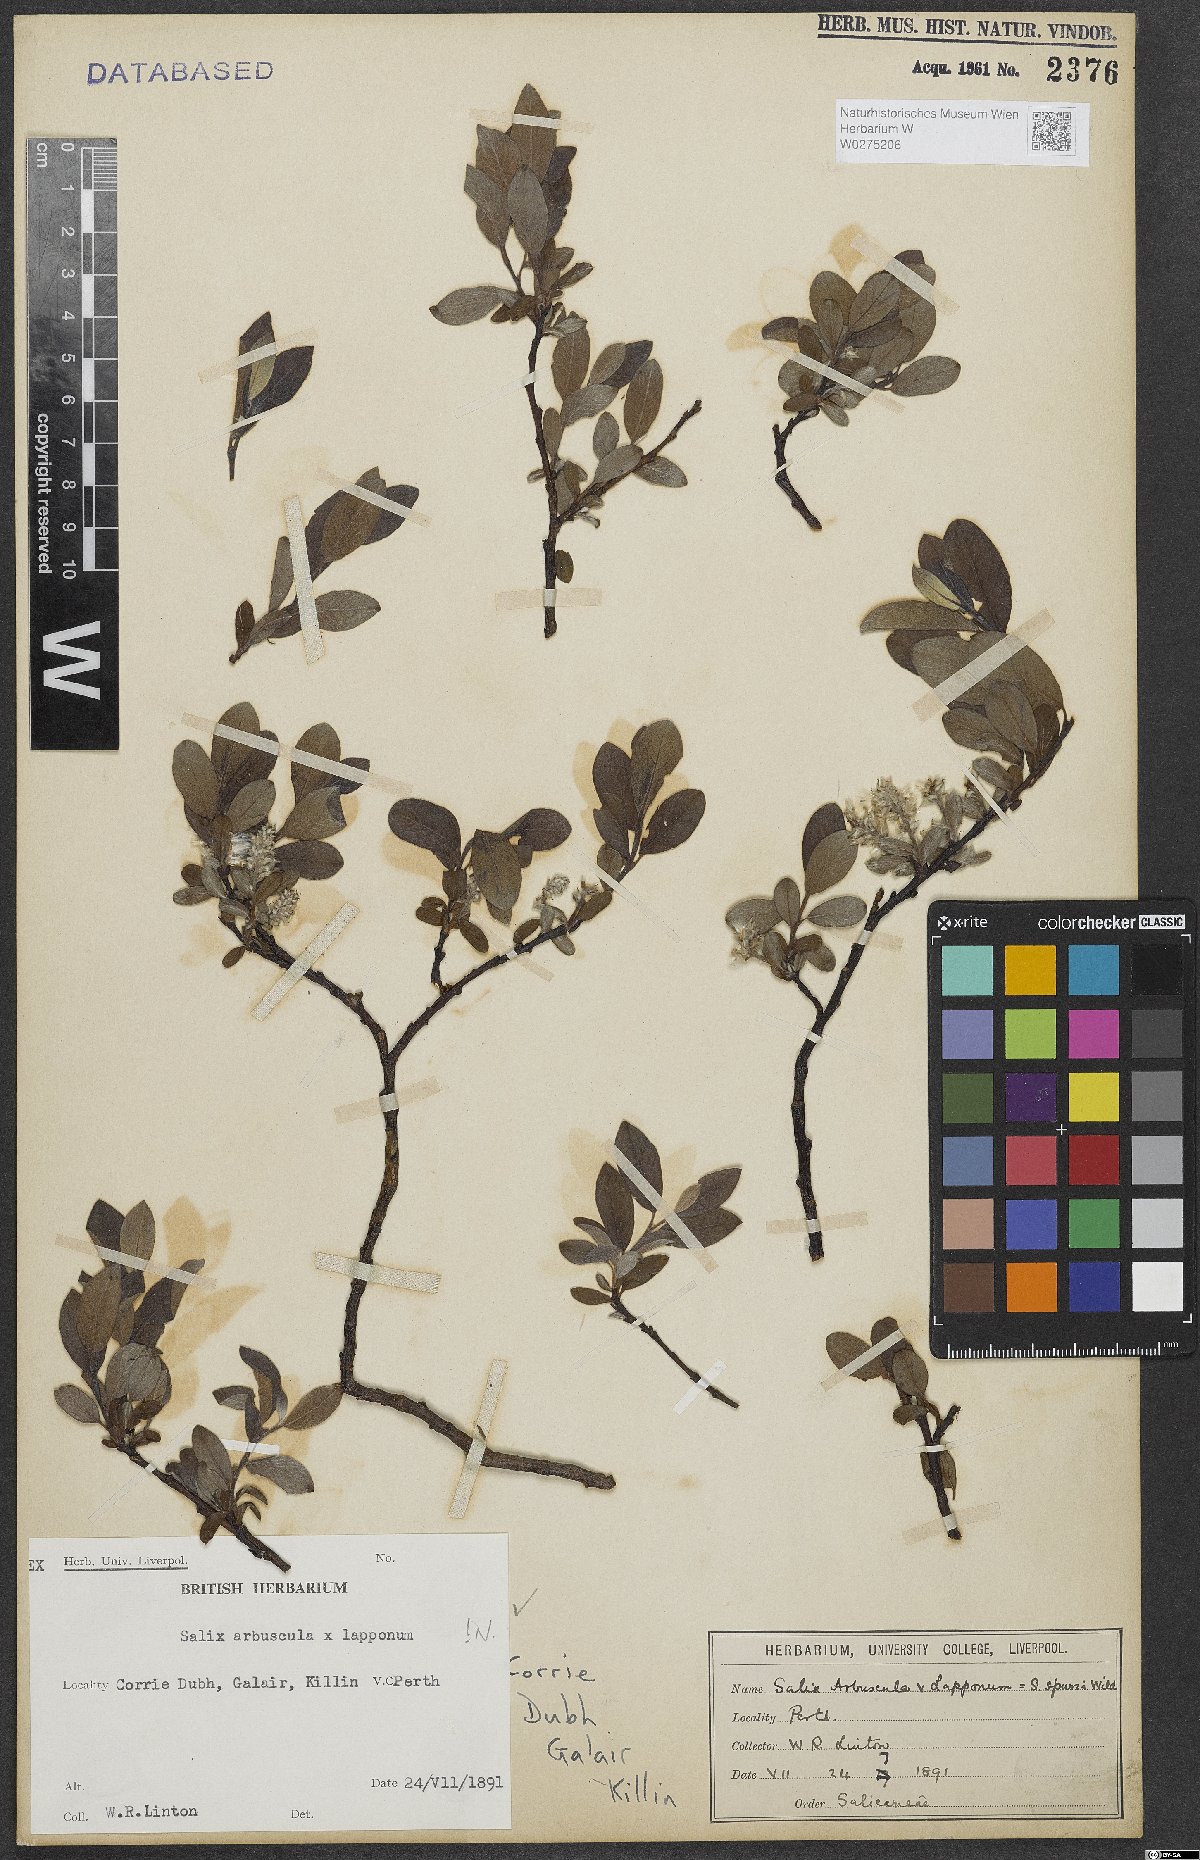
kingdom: Plantae
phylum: Tracheophyta
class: Magnoliopsida
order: Malpighiales
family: Salicaceae
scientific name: Salicaceae
